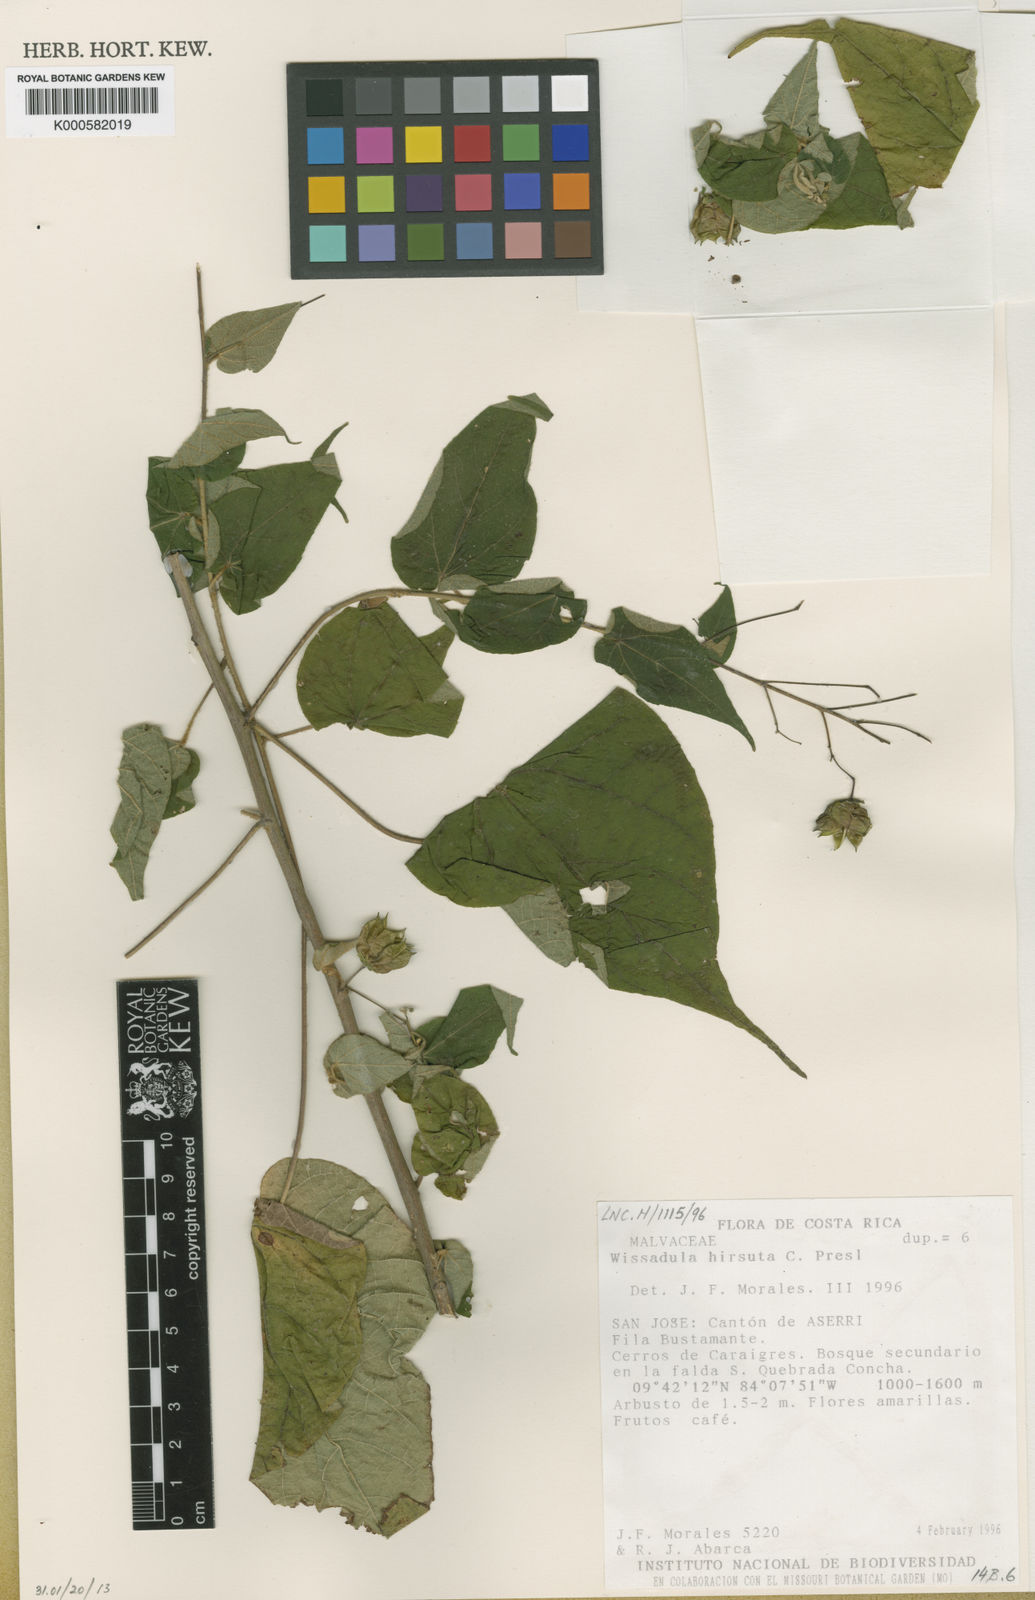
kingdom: Plantae
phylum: Tracheophyta
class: Magnoliopsida
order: Malvales
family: Malvaceae
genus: Wissadula
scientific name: Wissadula amplissima
